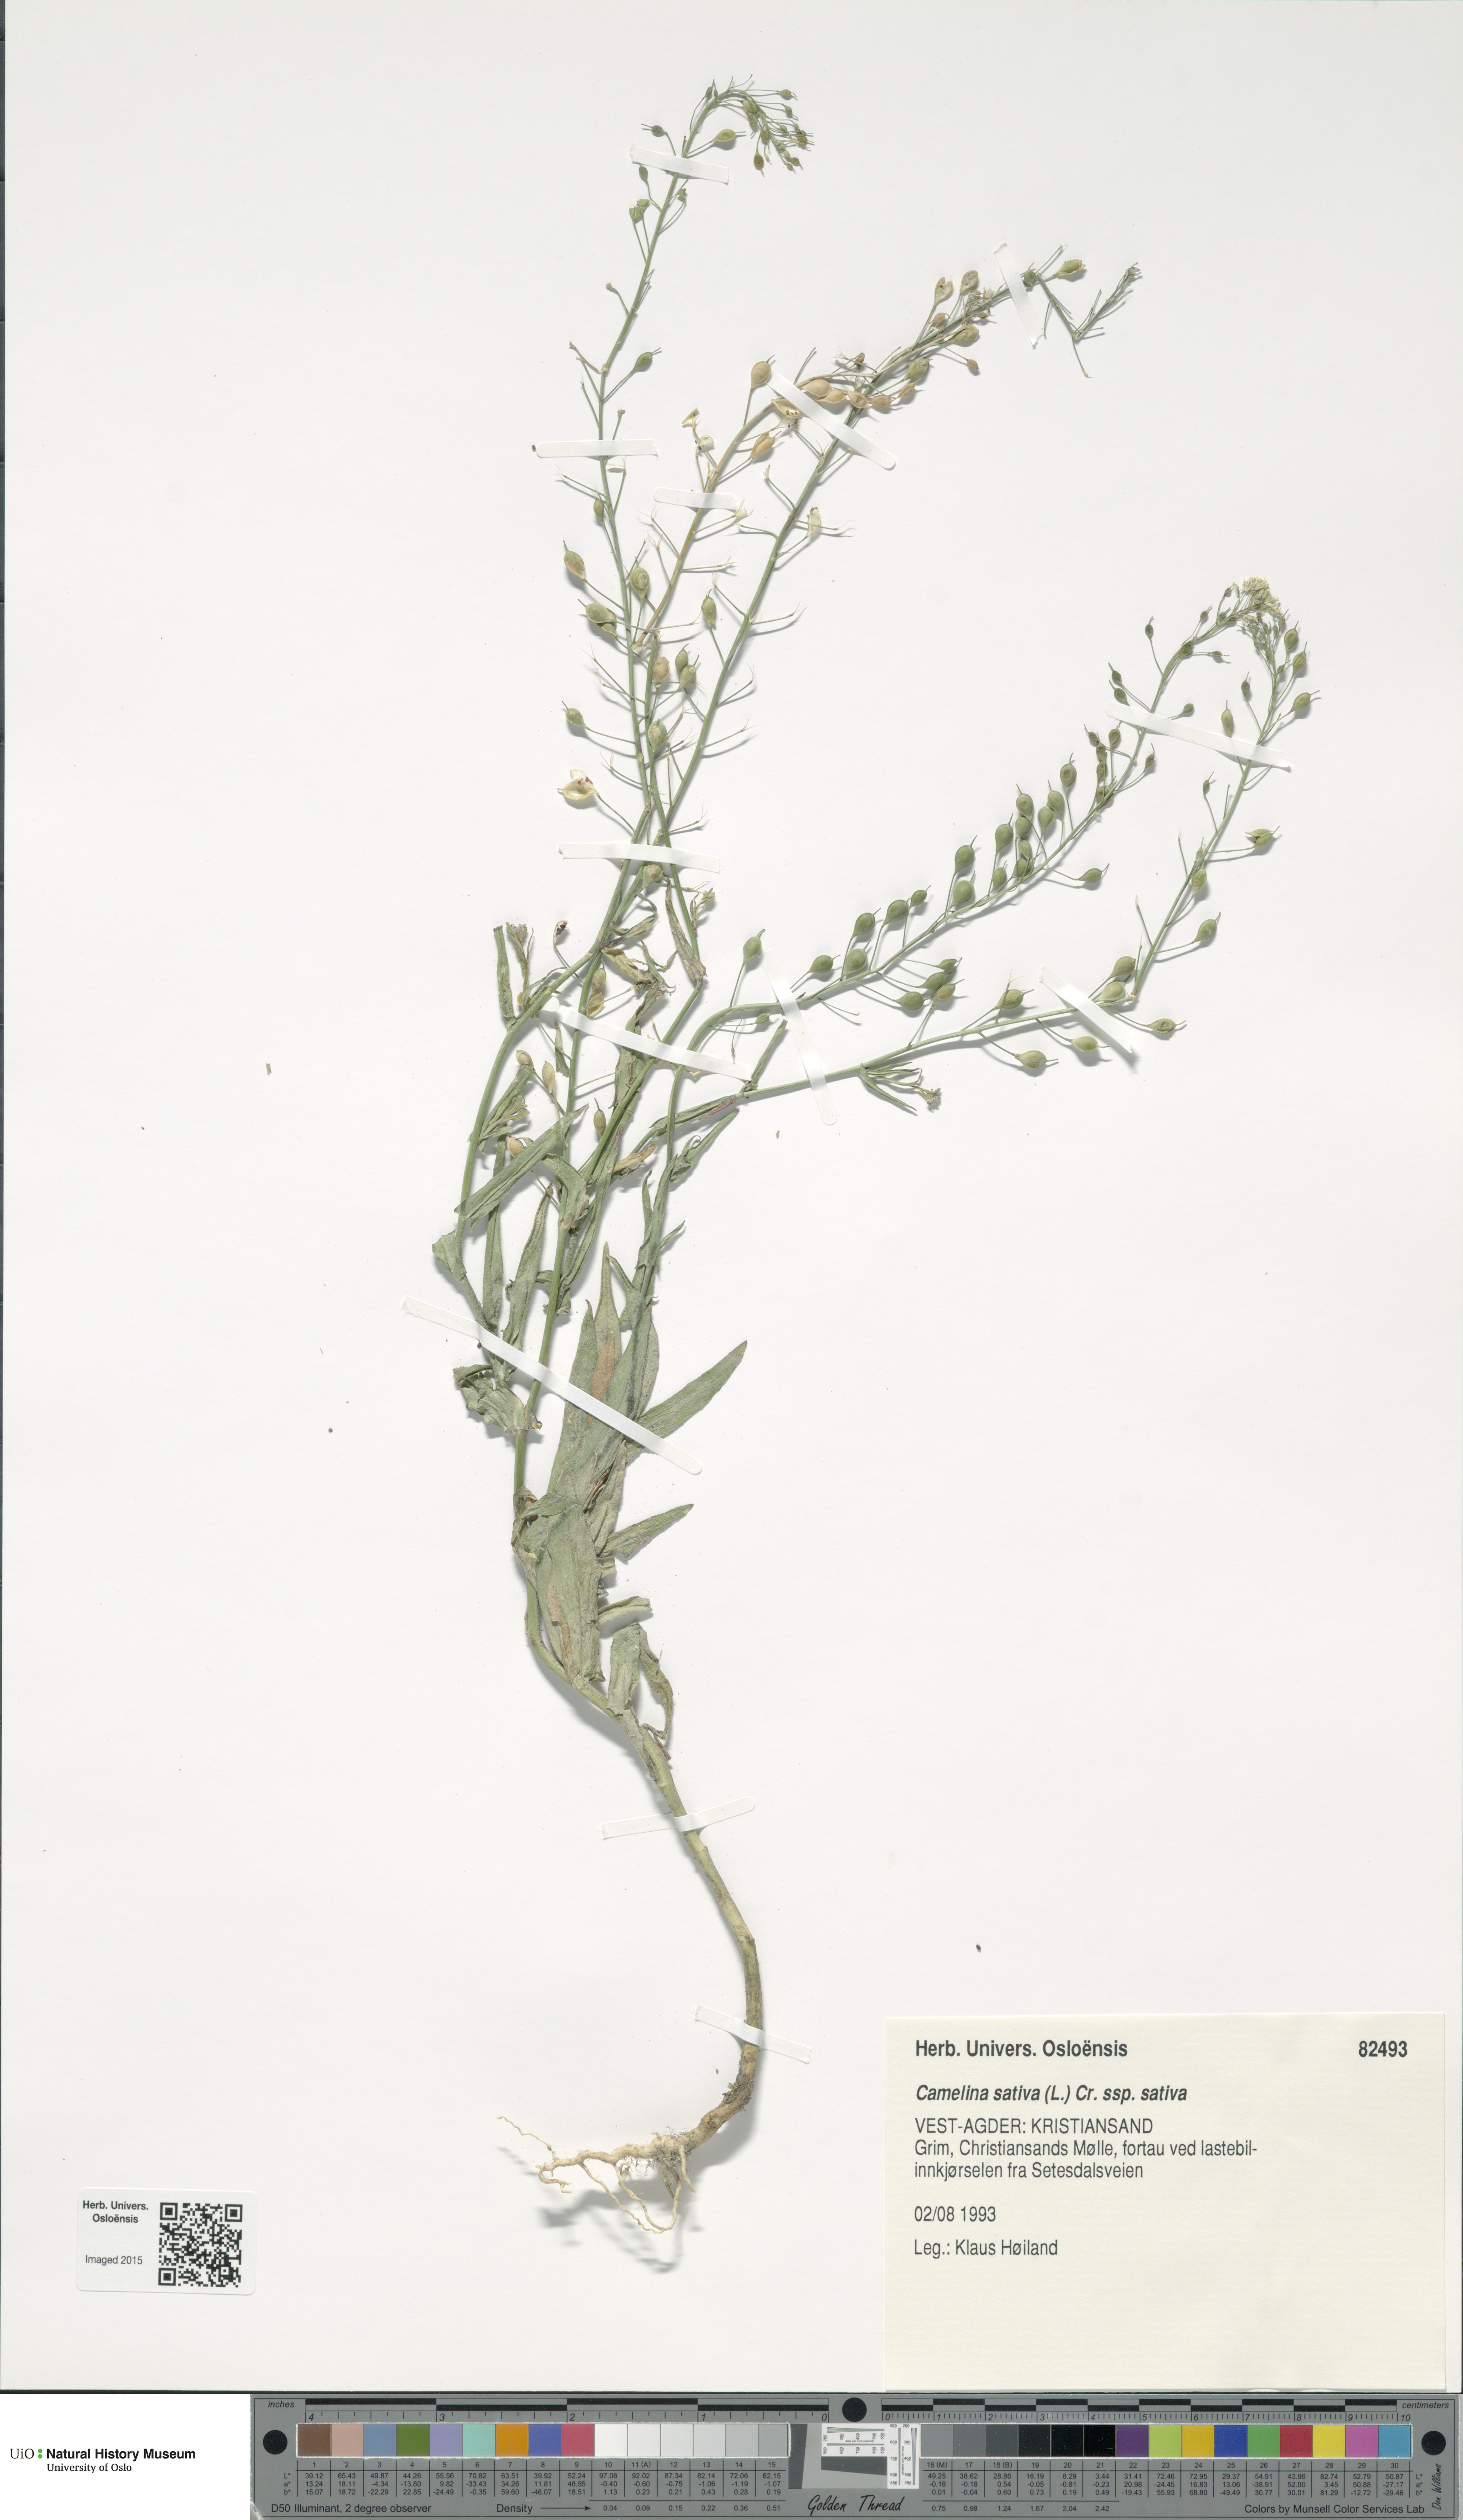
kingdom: Plantae
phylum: Tracheophyta
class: Magnoliopsida
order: Brassicales
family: Brassicaceae
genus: Camelina
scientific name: Camelina sativa
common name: Gold-of-pleasure
